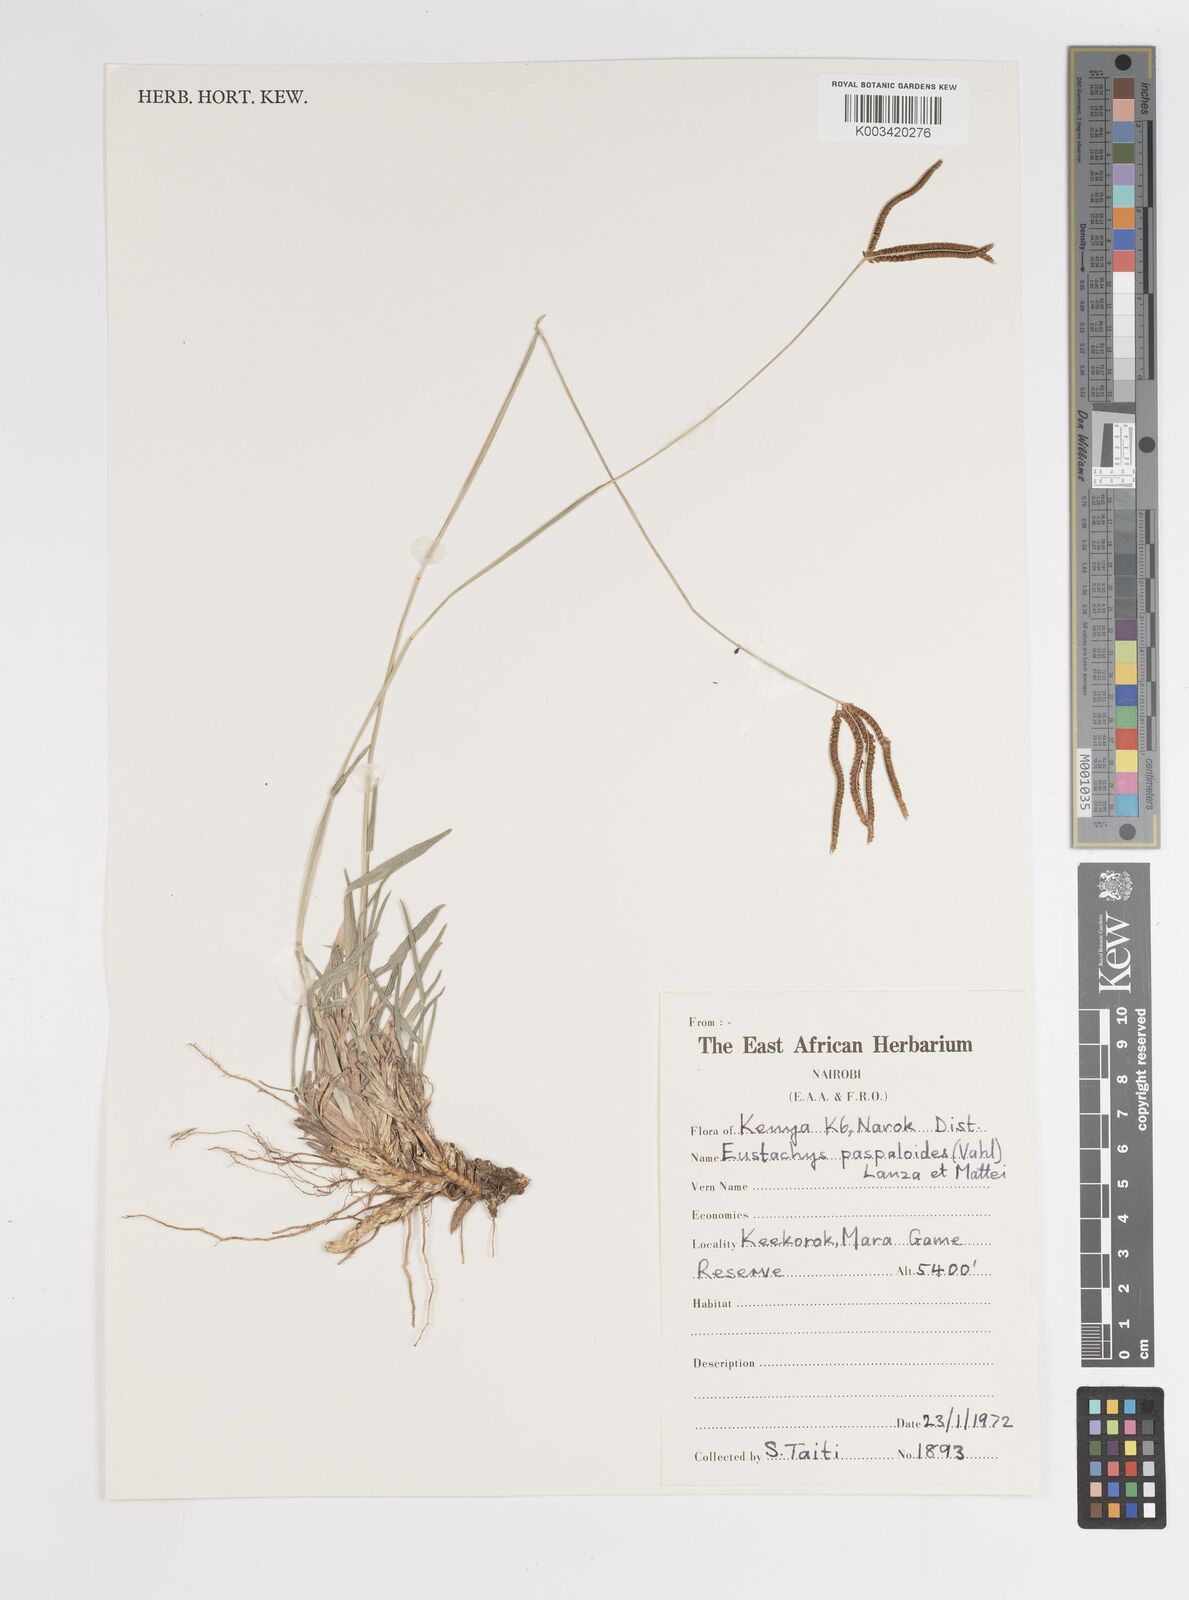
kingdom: Plantae
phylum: Tracheophyta
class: Liliopsida
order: Poales
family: Poaceae
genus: Eustachys
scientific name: Eustachys paspaloides
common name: Caribbean fingergrass
